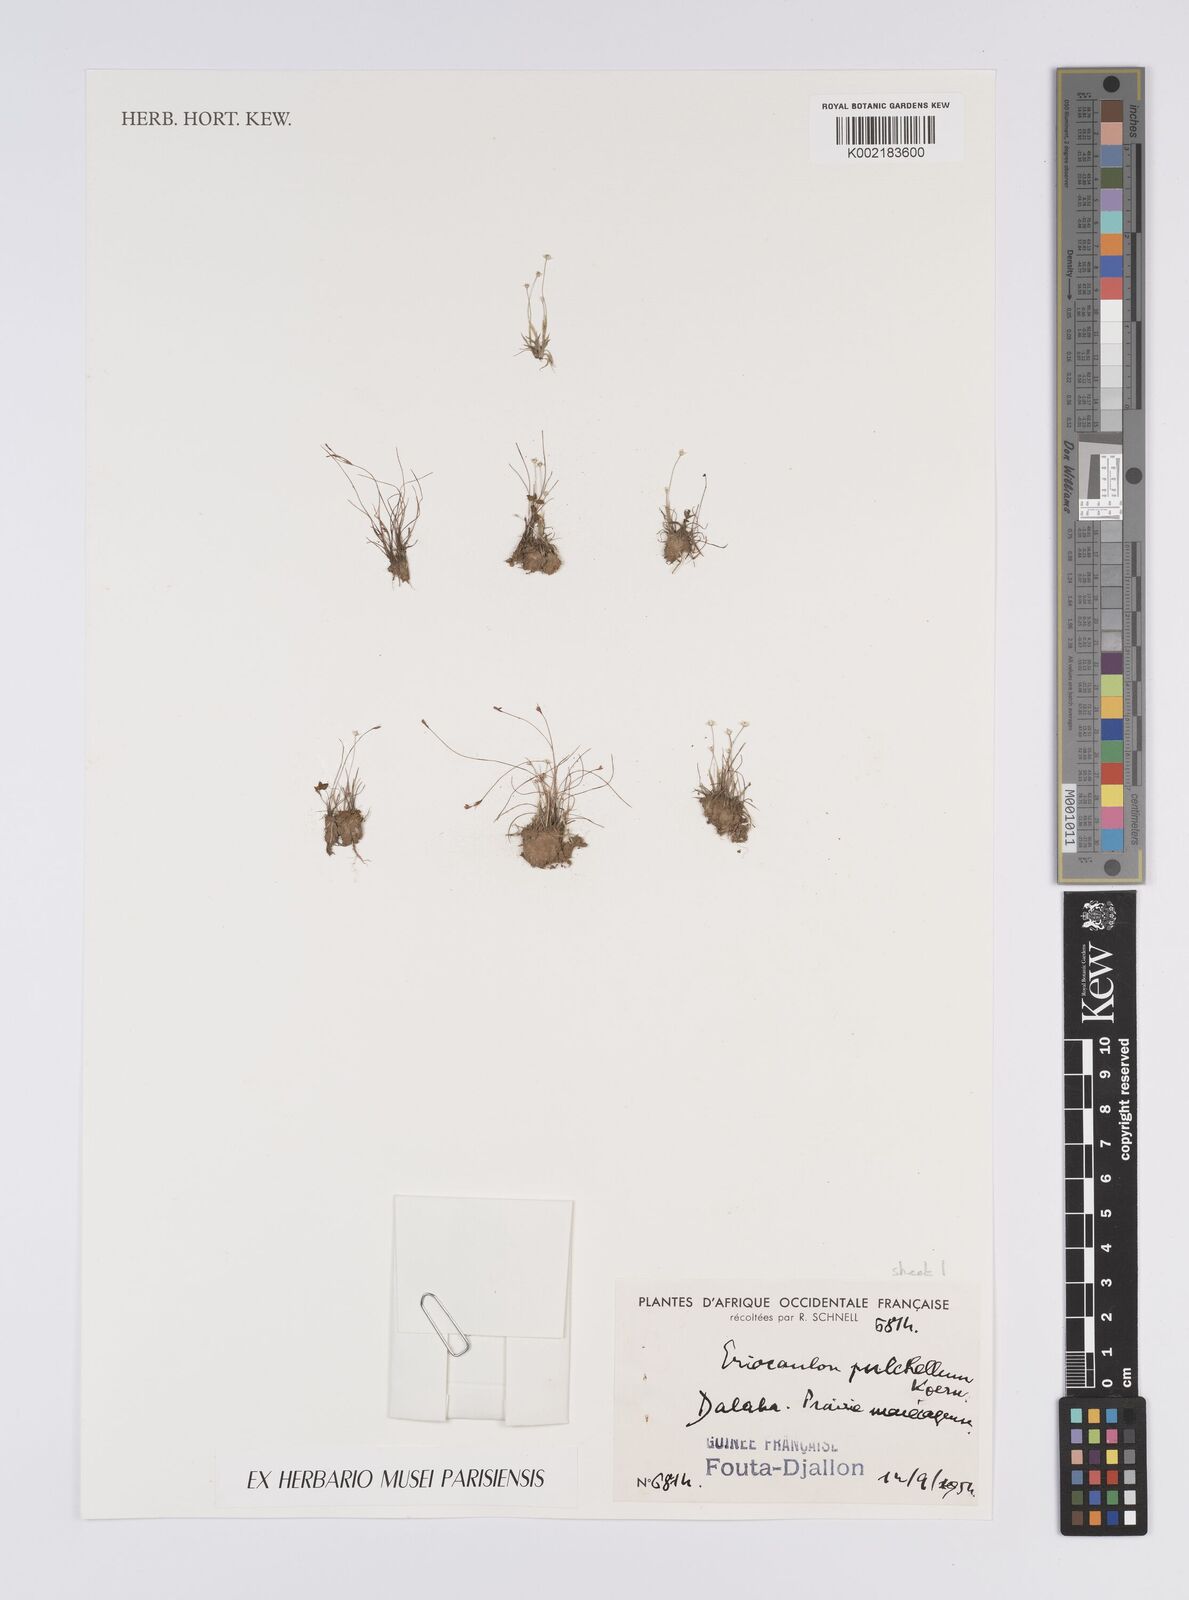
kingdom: Plantae
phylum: Tracheophyta
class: Liliopsida
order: Poales
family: Eriocaulaceae
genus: Eriocaulon
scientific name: Eriocaulon pulchellum
